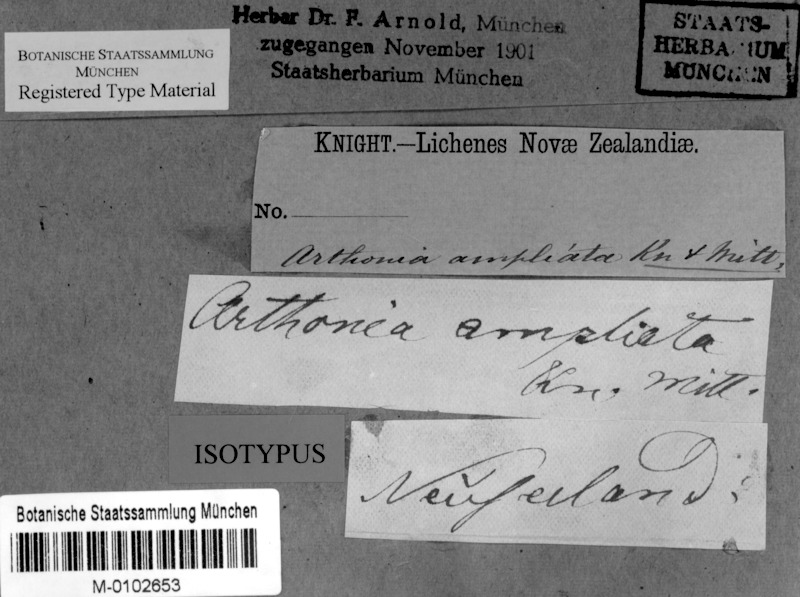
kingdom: Fungi
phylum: Ascomycota
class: Arthoniomycetes
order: Arthoniales
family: Arthoniaceae
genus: Arthothelium
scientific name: Arthothelium ampliatum
